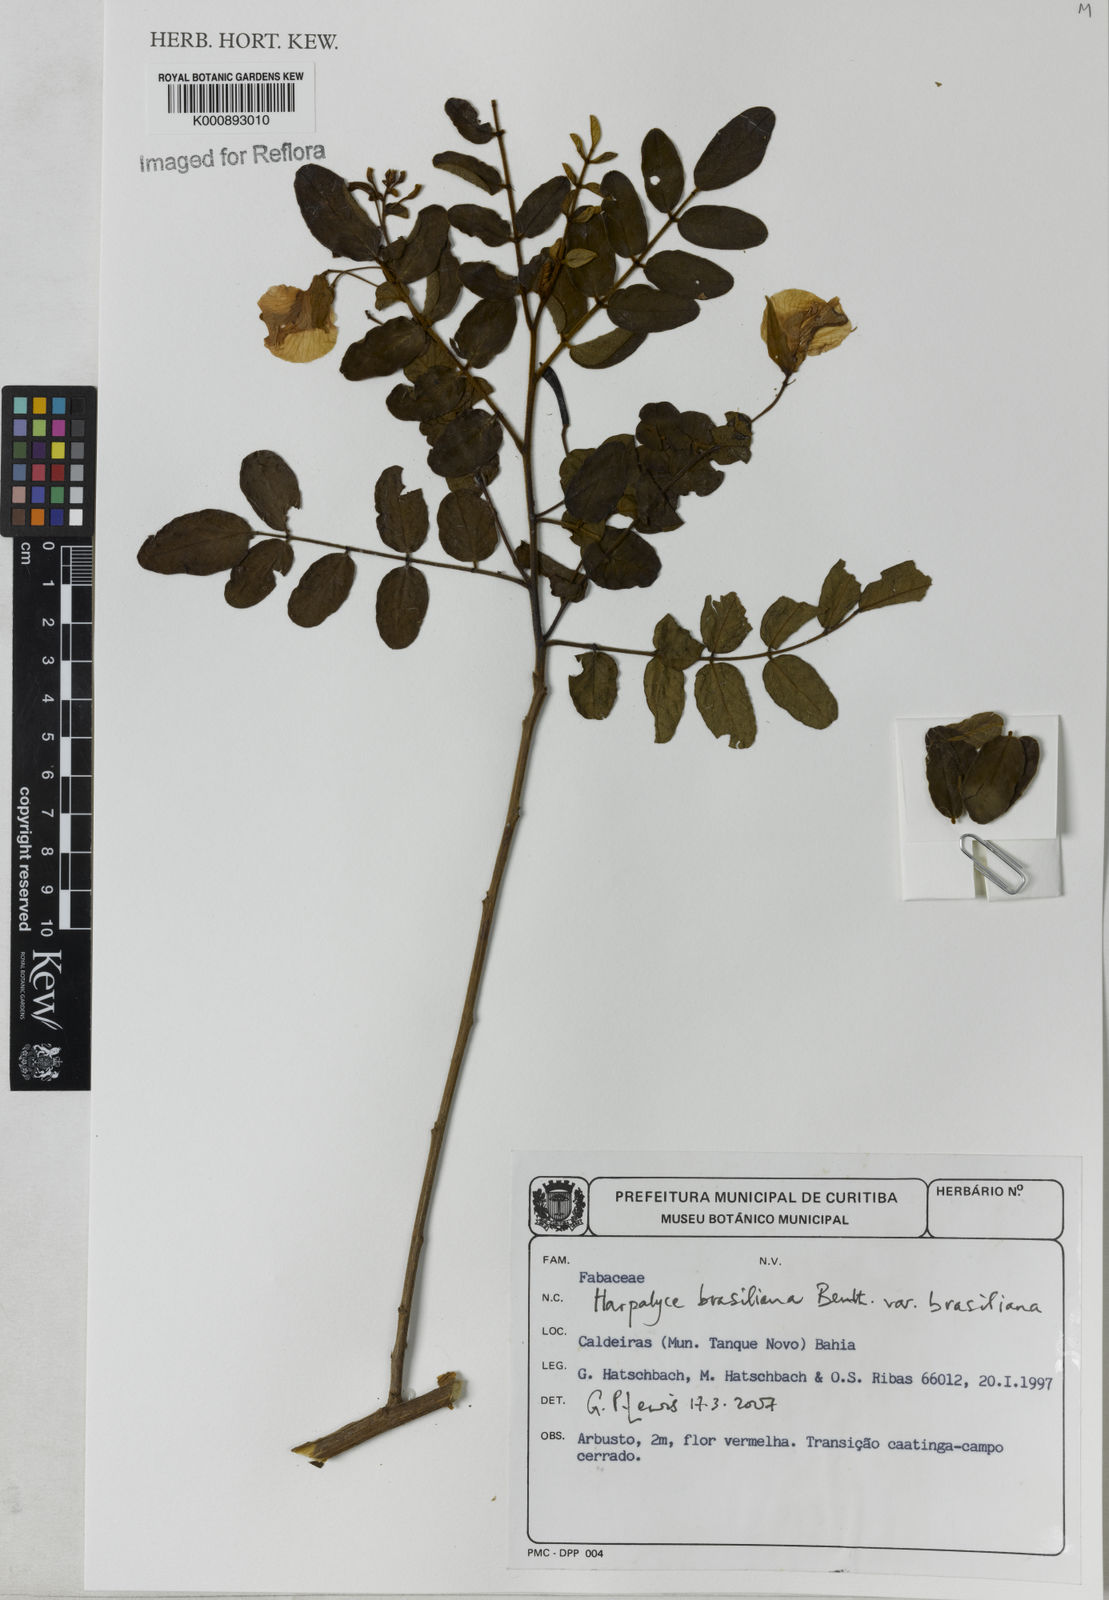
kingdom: Plantae
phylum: Tracheophyta
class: Magnoliopsida
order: Fabales
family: Fabaceae
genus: Harpalyce
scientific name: Harpalyce brasiliana
